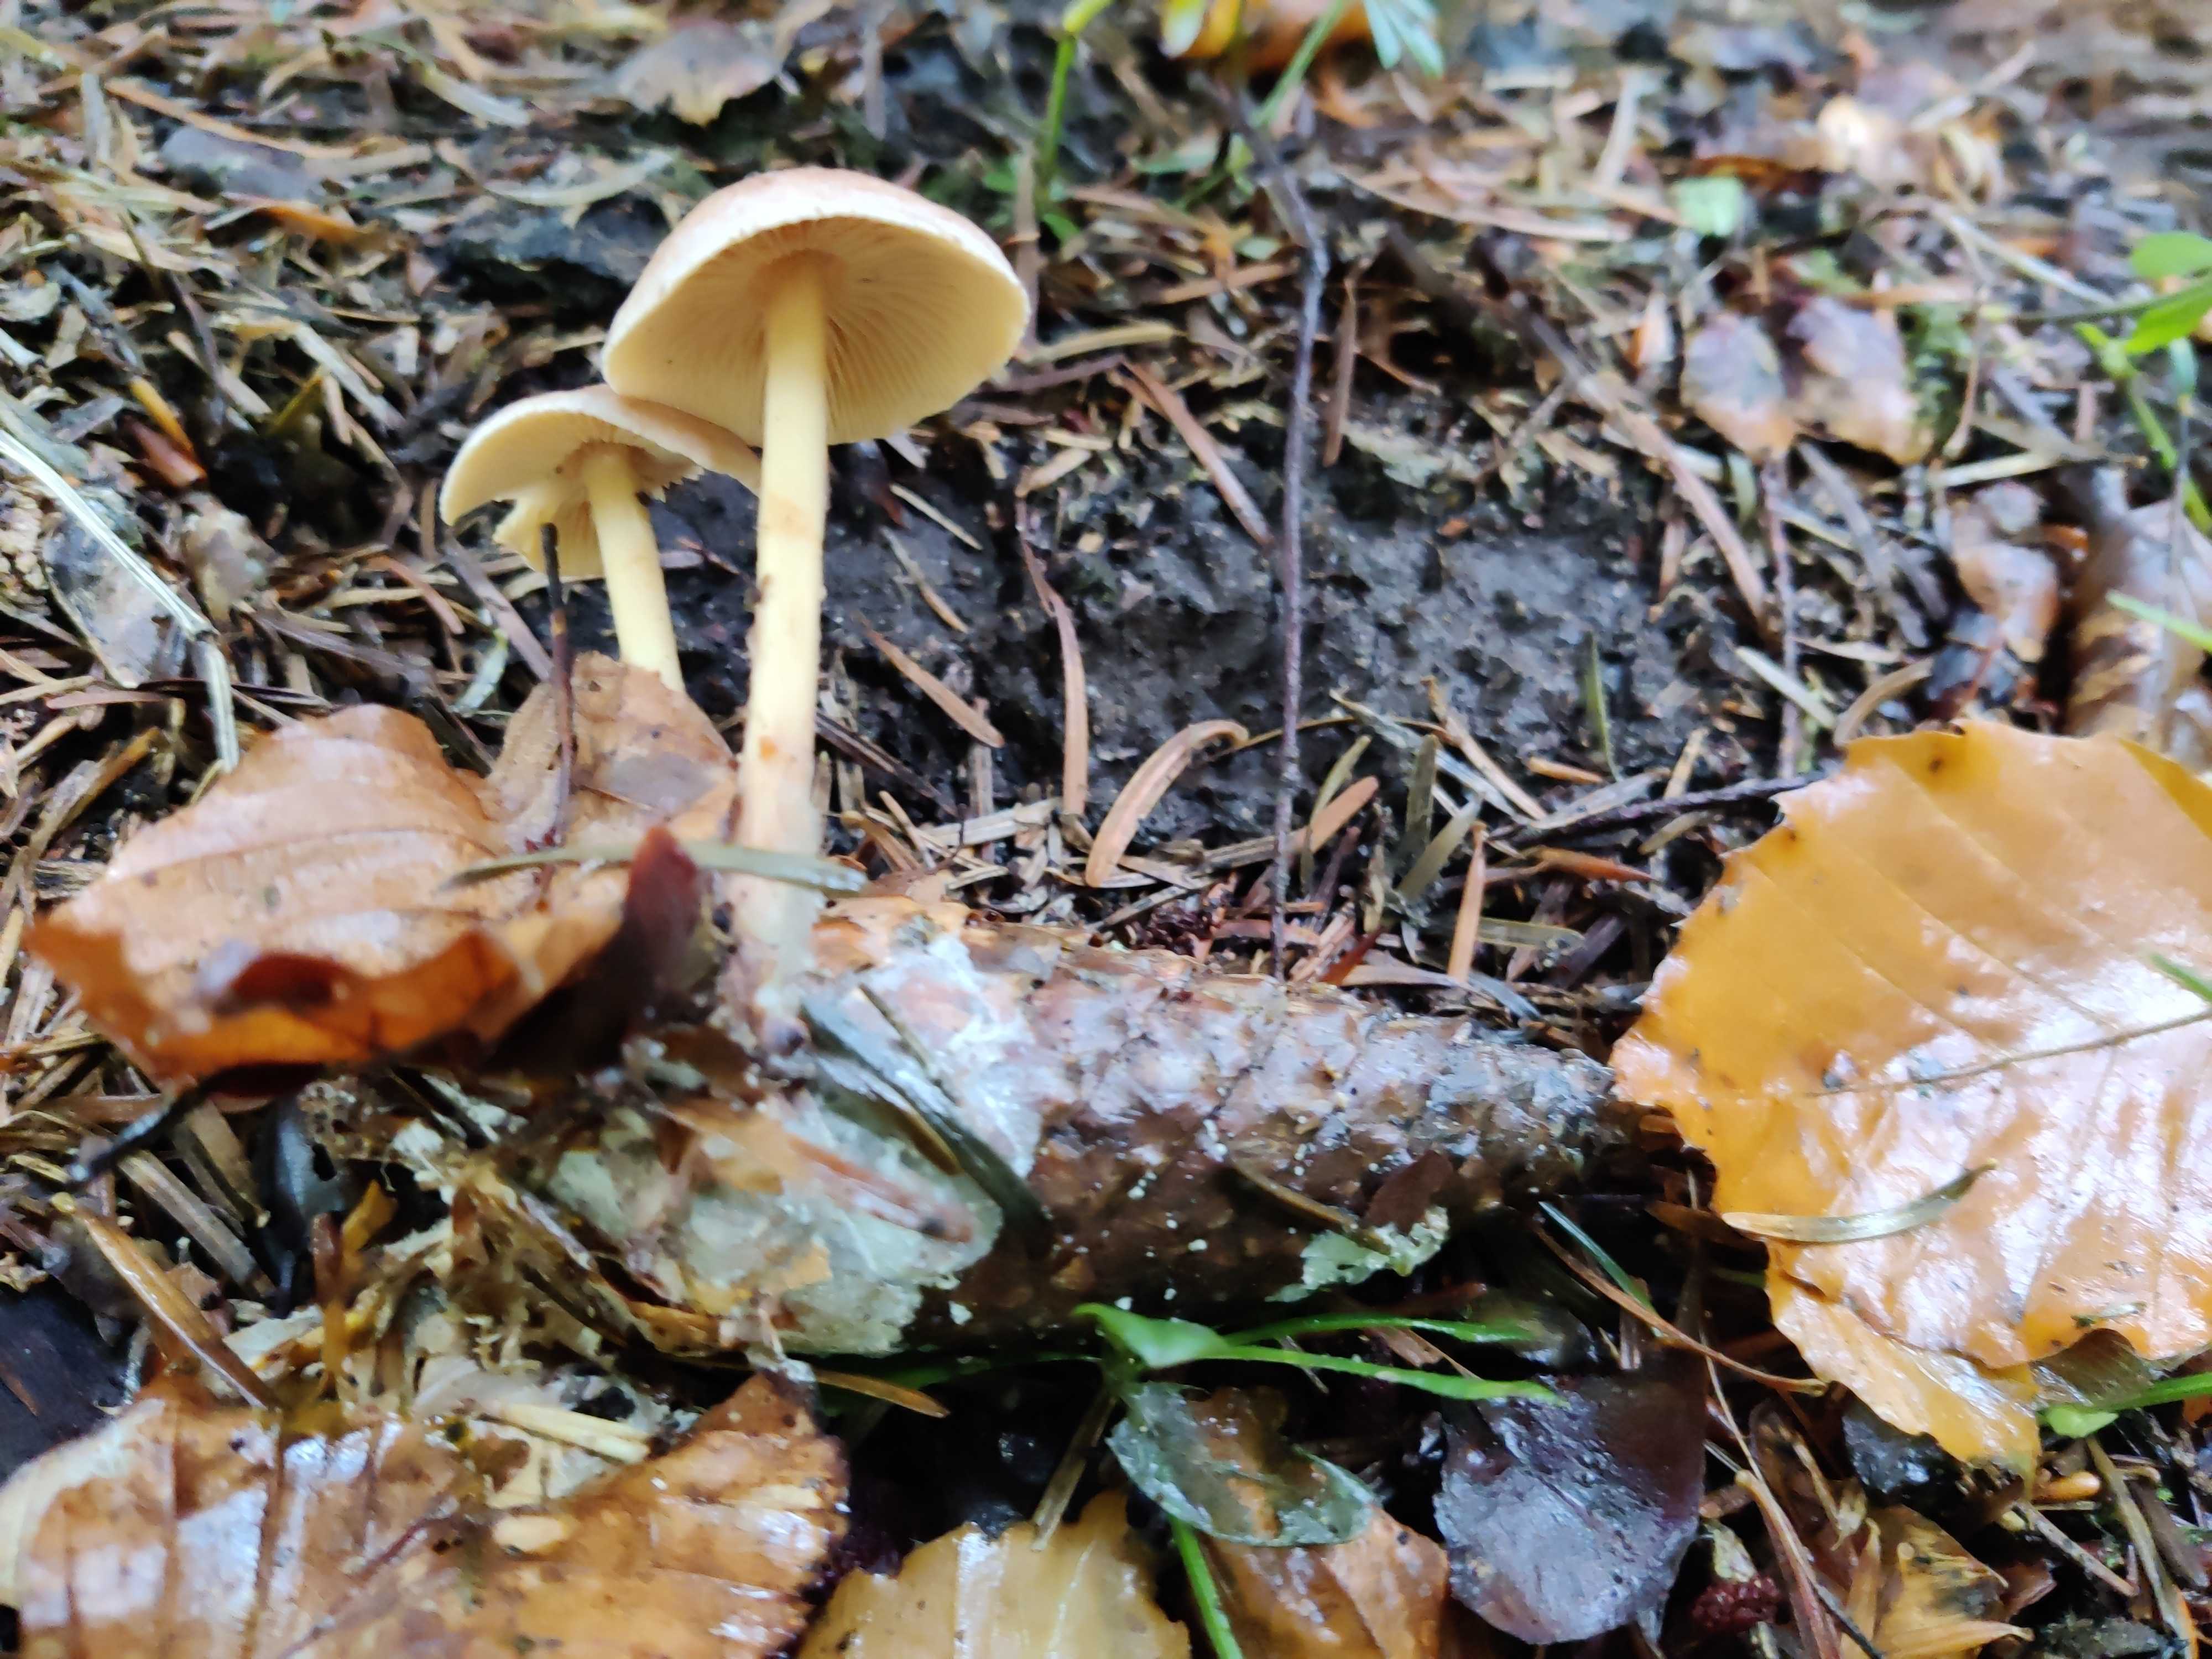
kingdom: Fungi
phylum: Basidiomycota
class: Agaricomycetes
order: Agaricales
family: Omphalotaceae
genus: Collybiopsis
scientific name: Collybiopsis peronata
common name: bestøvlet fladhat
